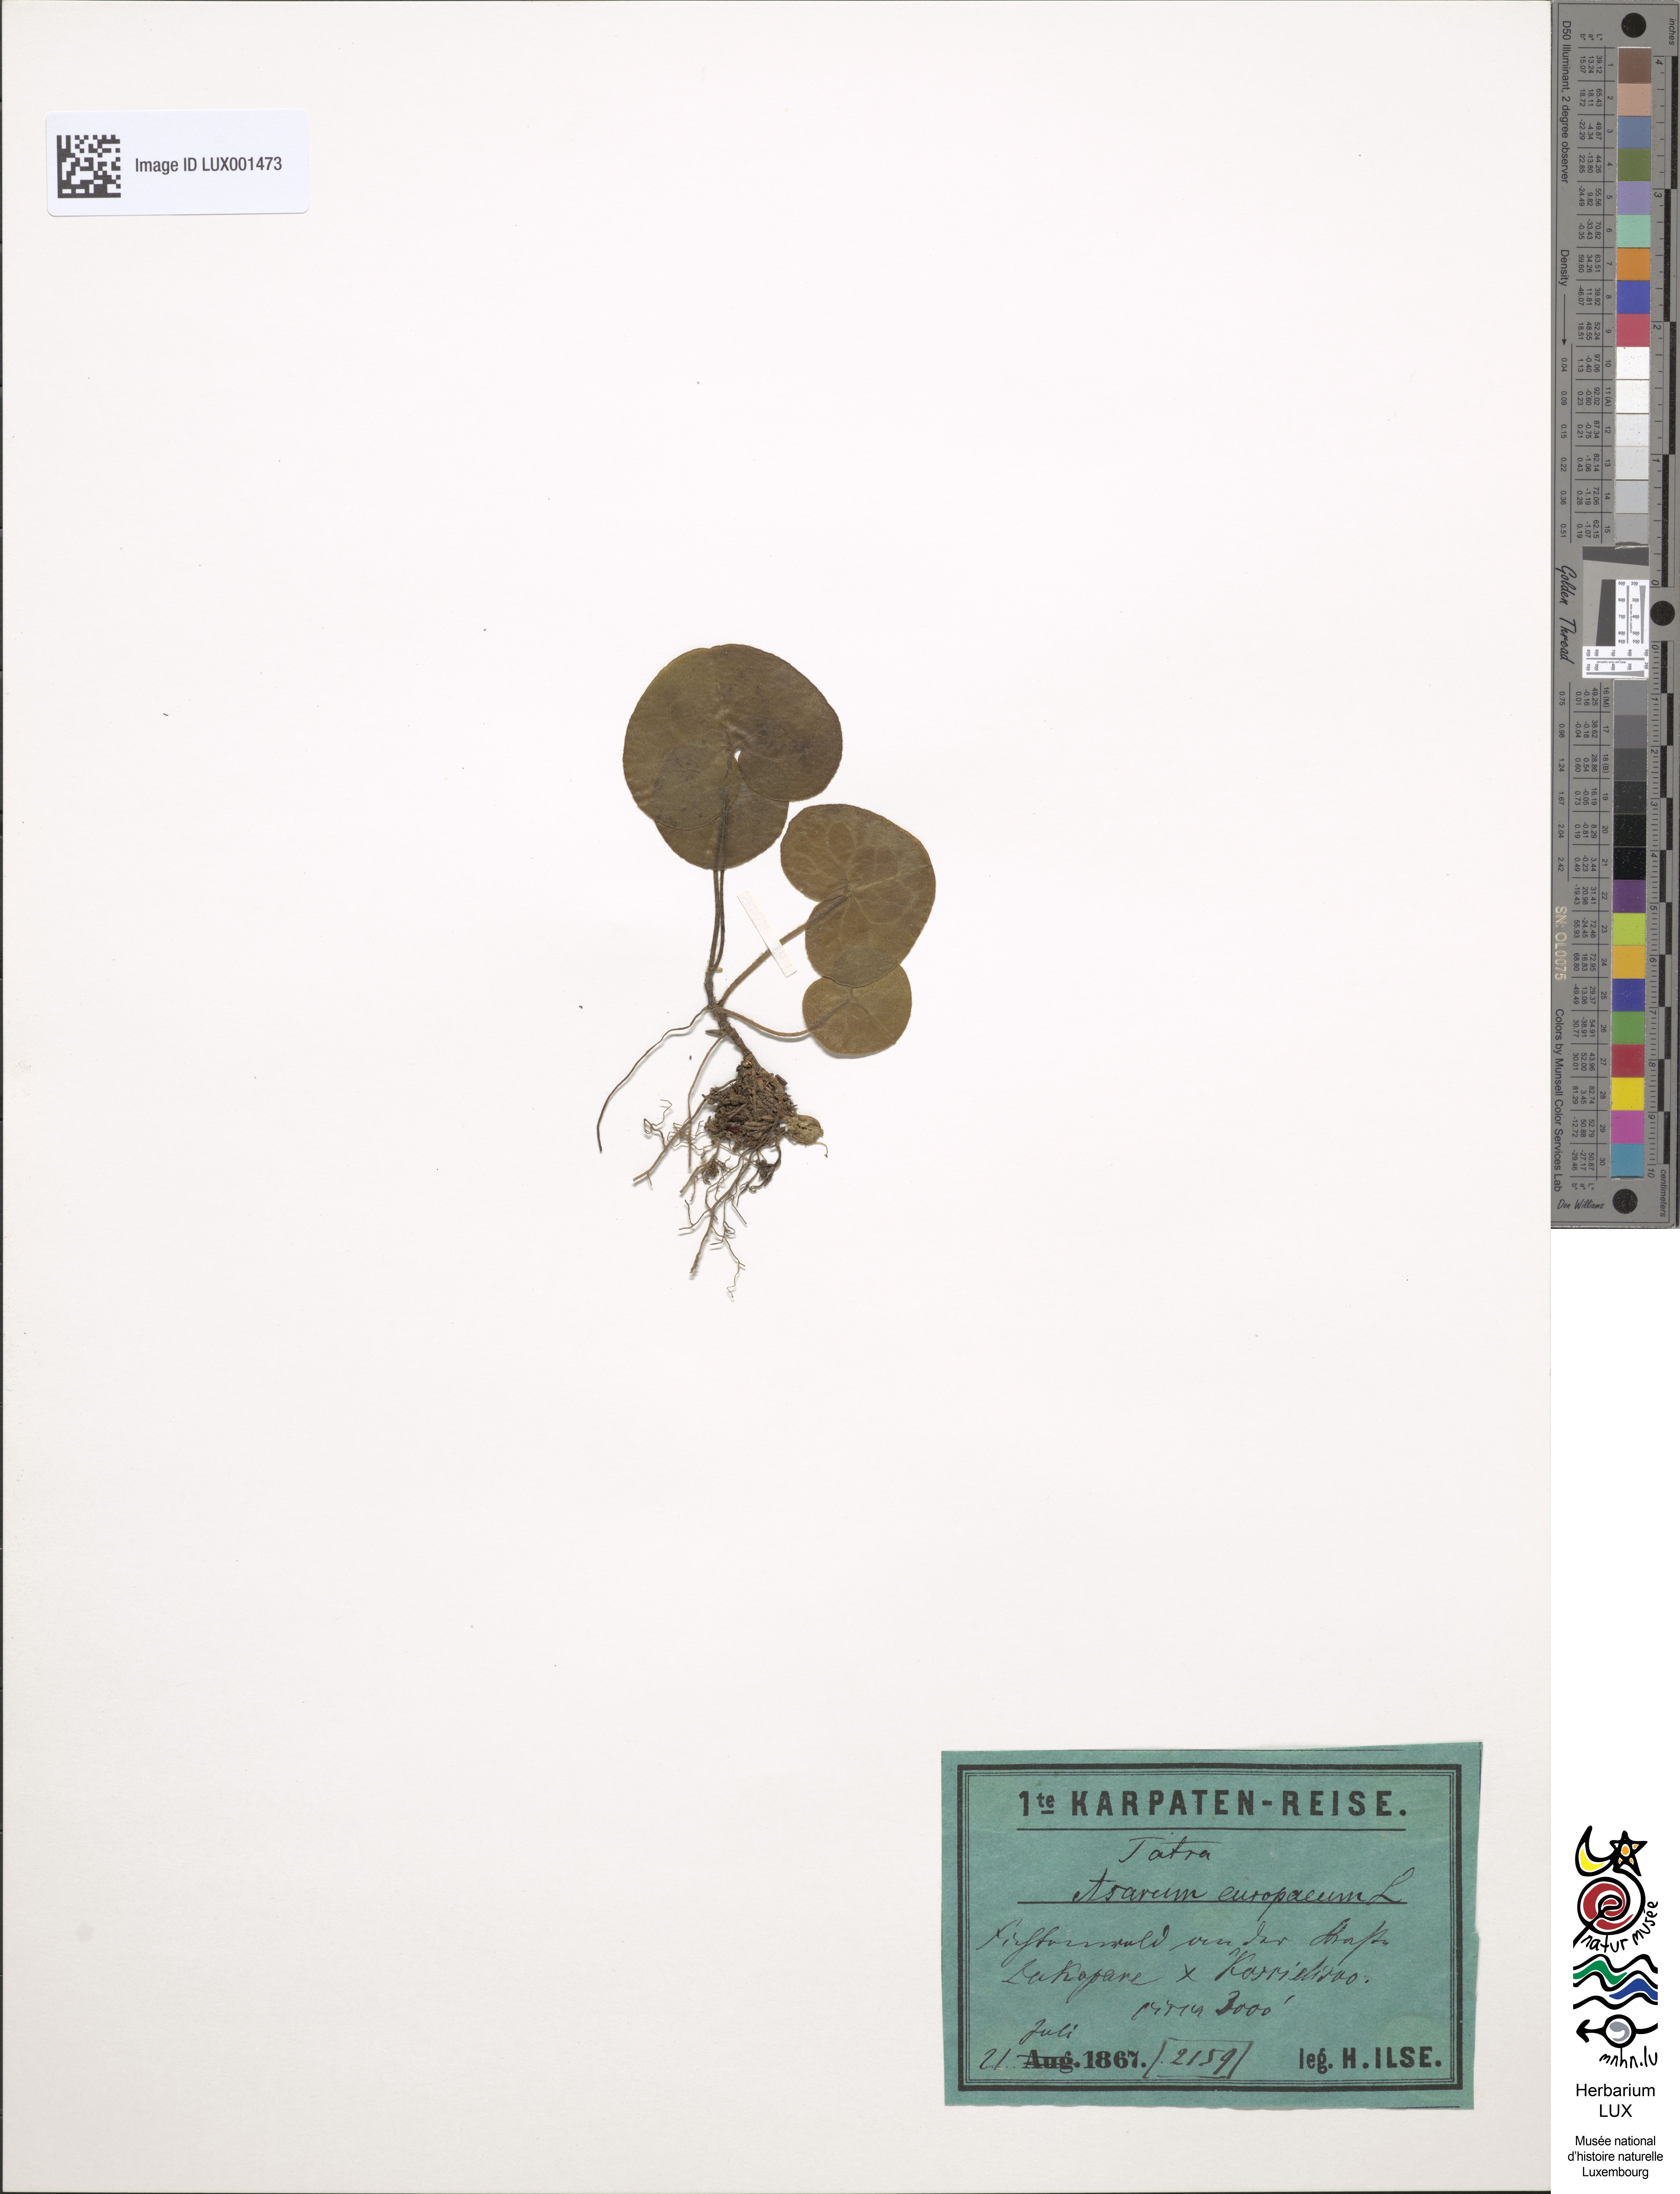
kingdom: Plantae
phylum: Tracheophyta
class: Magnoliopsida
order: Piperales
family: Aristolochiaceae
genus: Asarum
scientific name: Asarum europaeum
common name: Asarabacca
